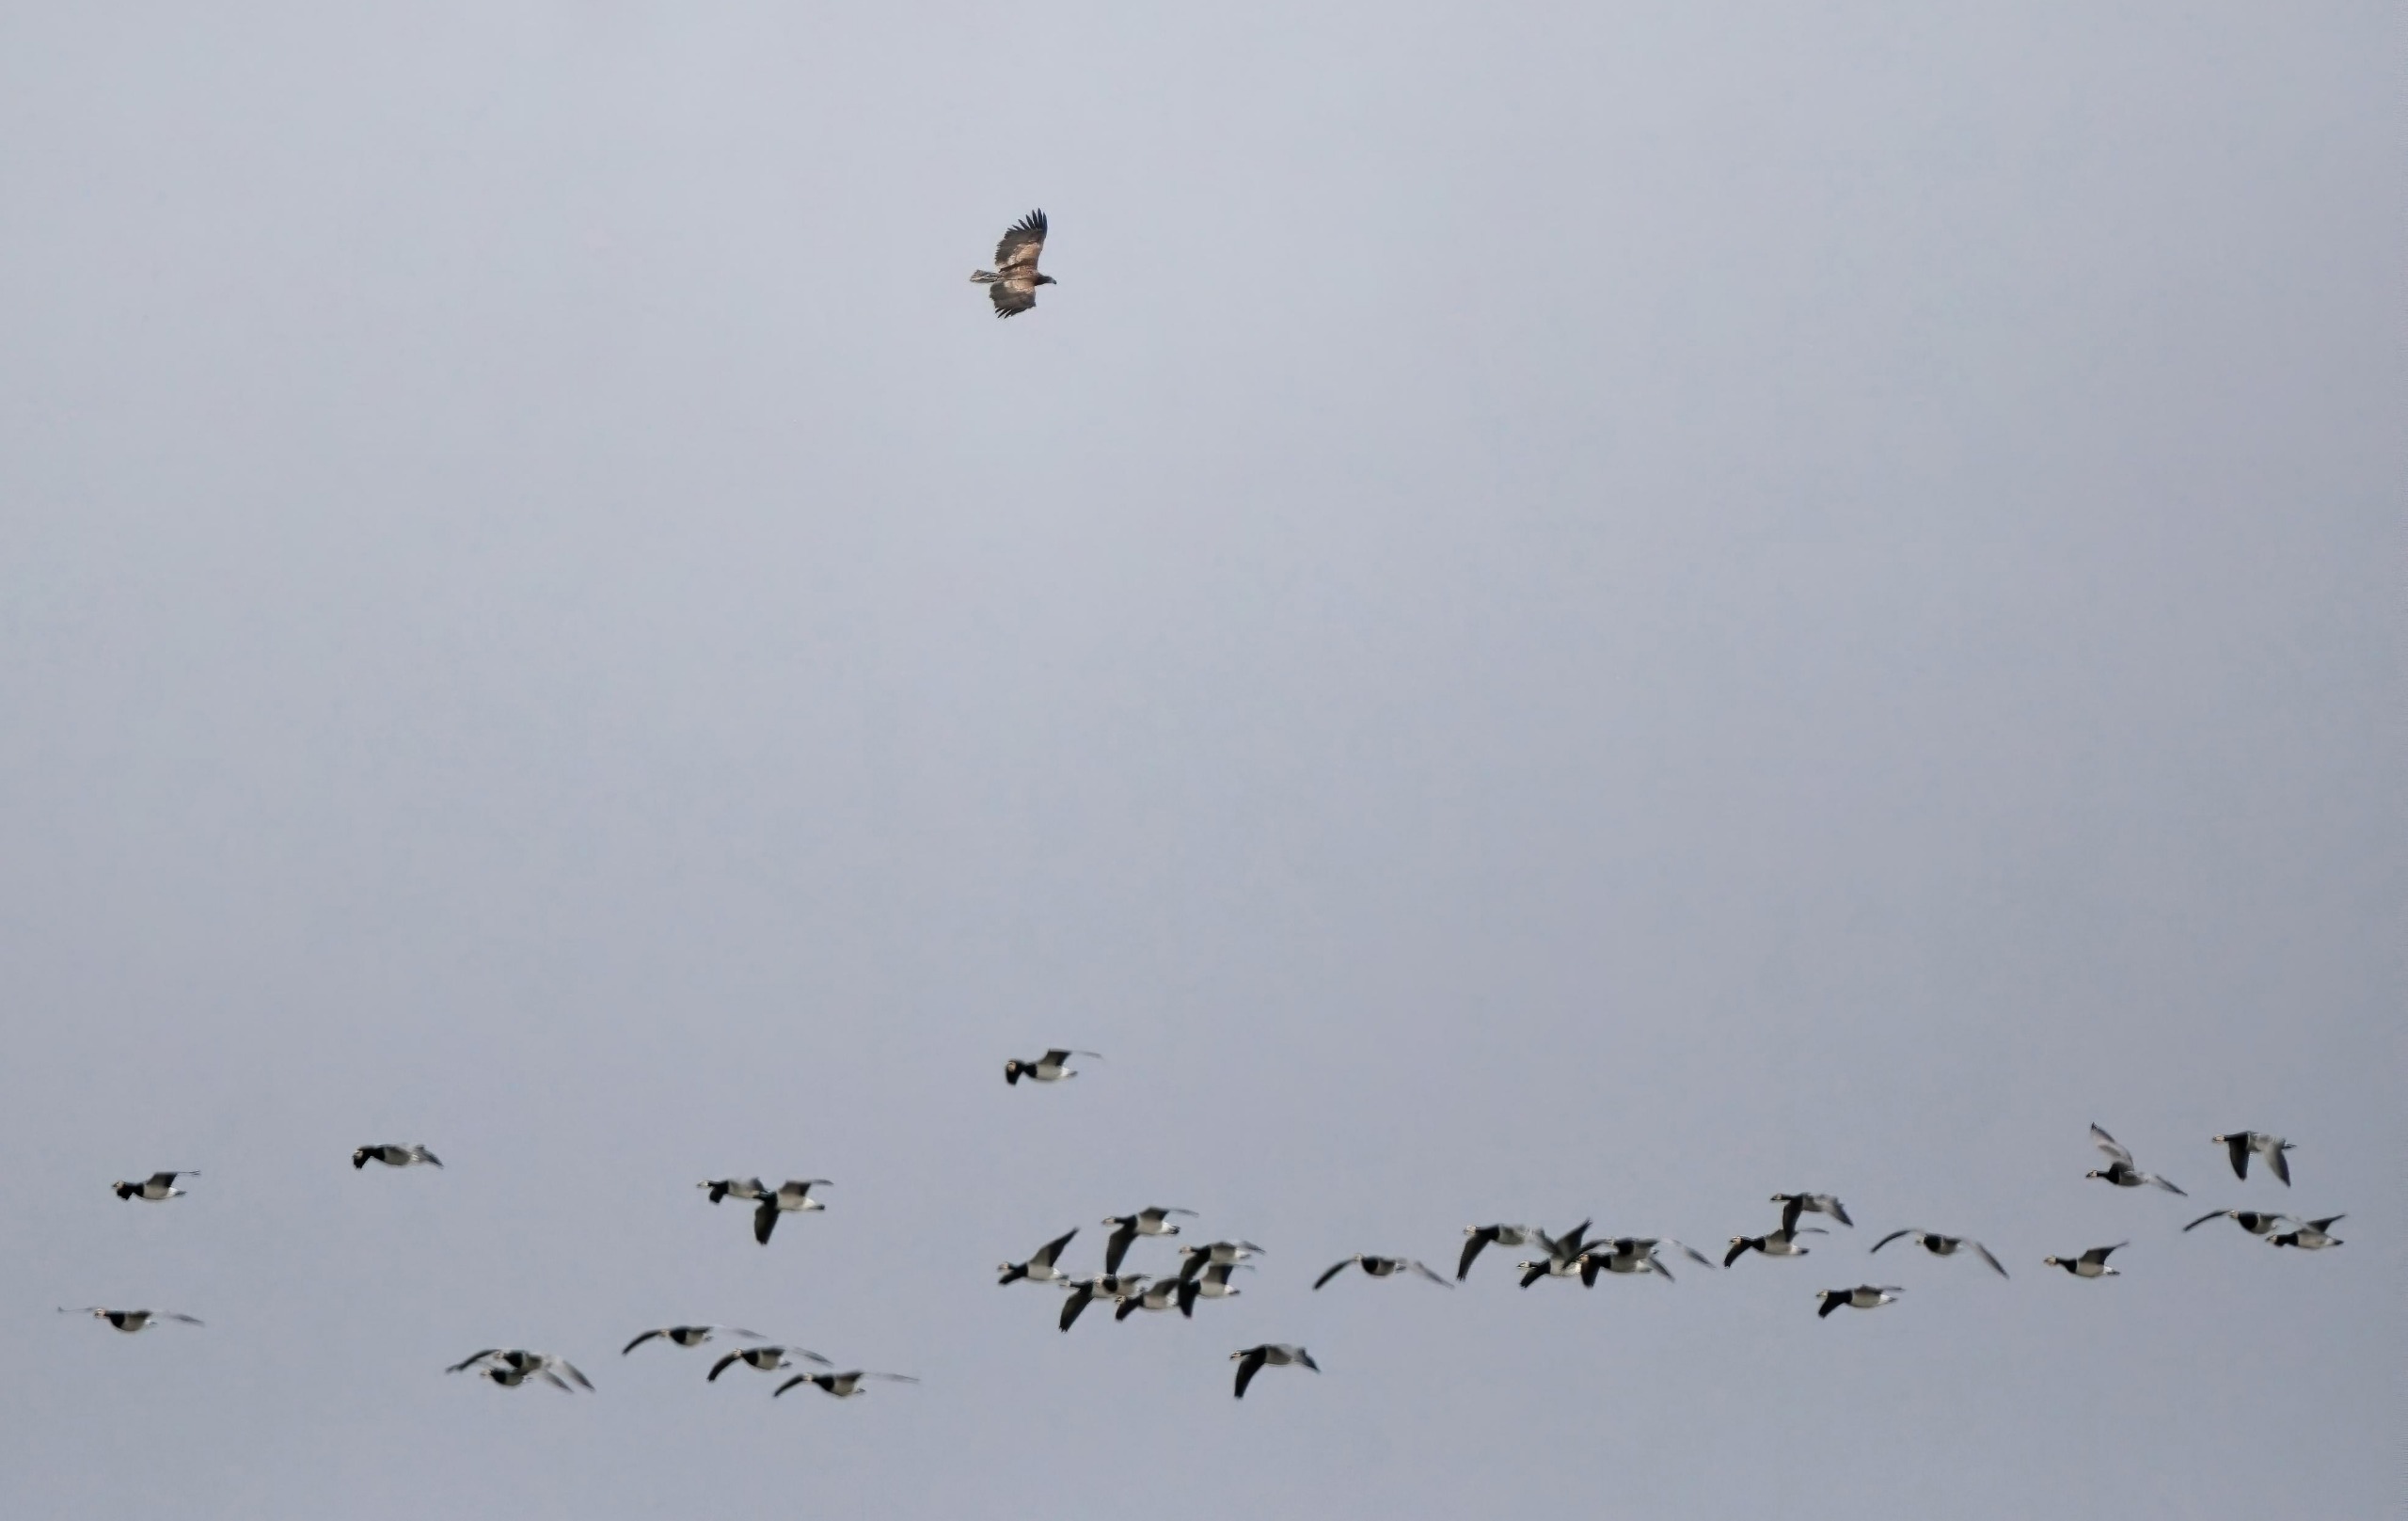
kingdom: Animalia
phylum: Chordata
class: Aves
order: Accipitriformes
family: Accipitridae
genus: Haliaeetus
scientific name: Haliaeetus albicilla
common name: Havørn
